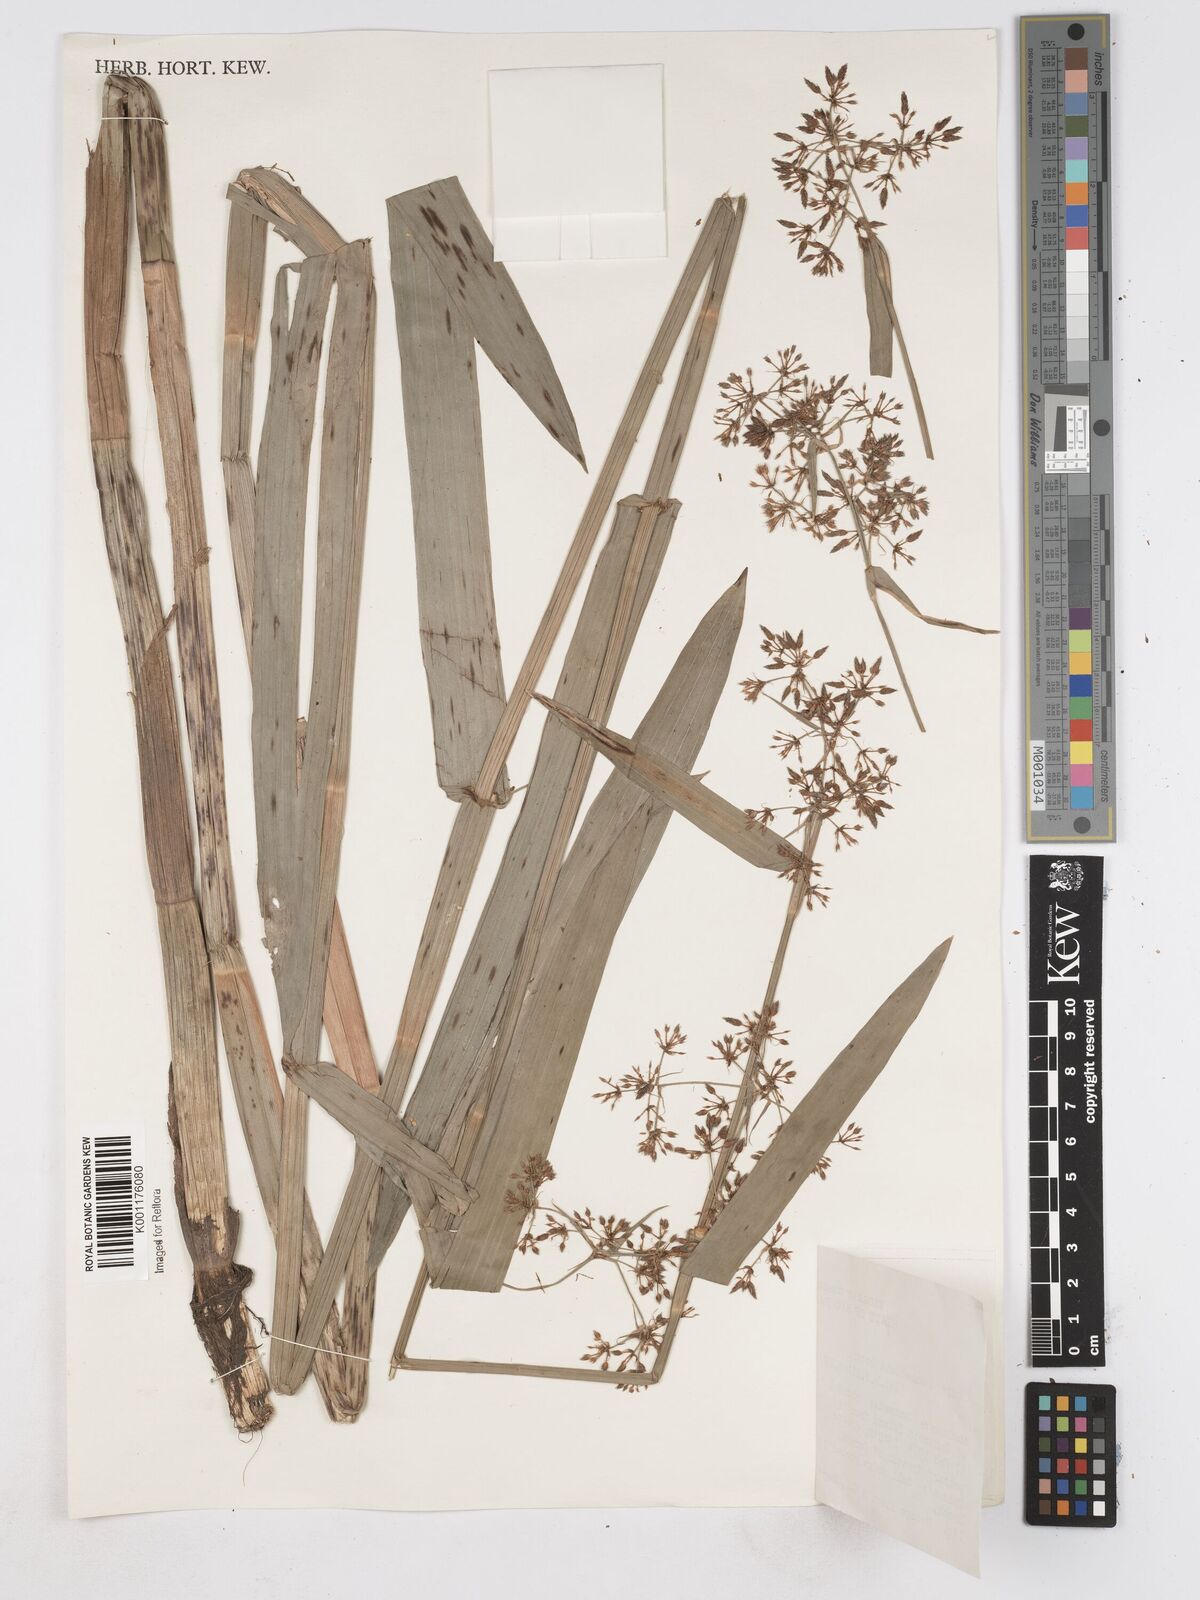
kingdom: Plantae
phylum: Tracheophyta
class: Liliopsida
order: Poales
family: Cyperaceae
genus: Fuirena
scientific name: Fuirena umbellata
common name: Yefen
